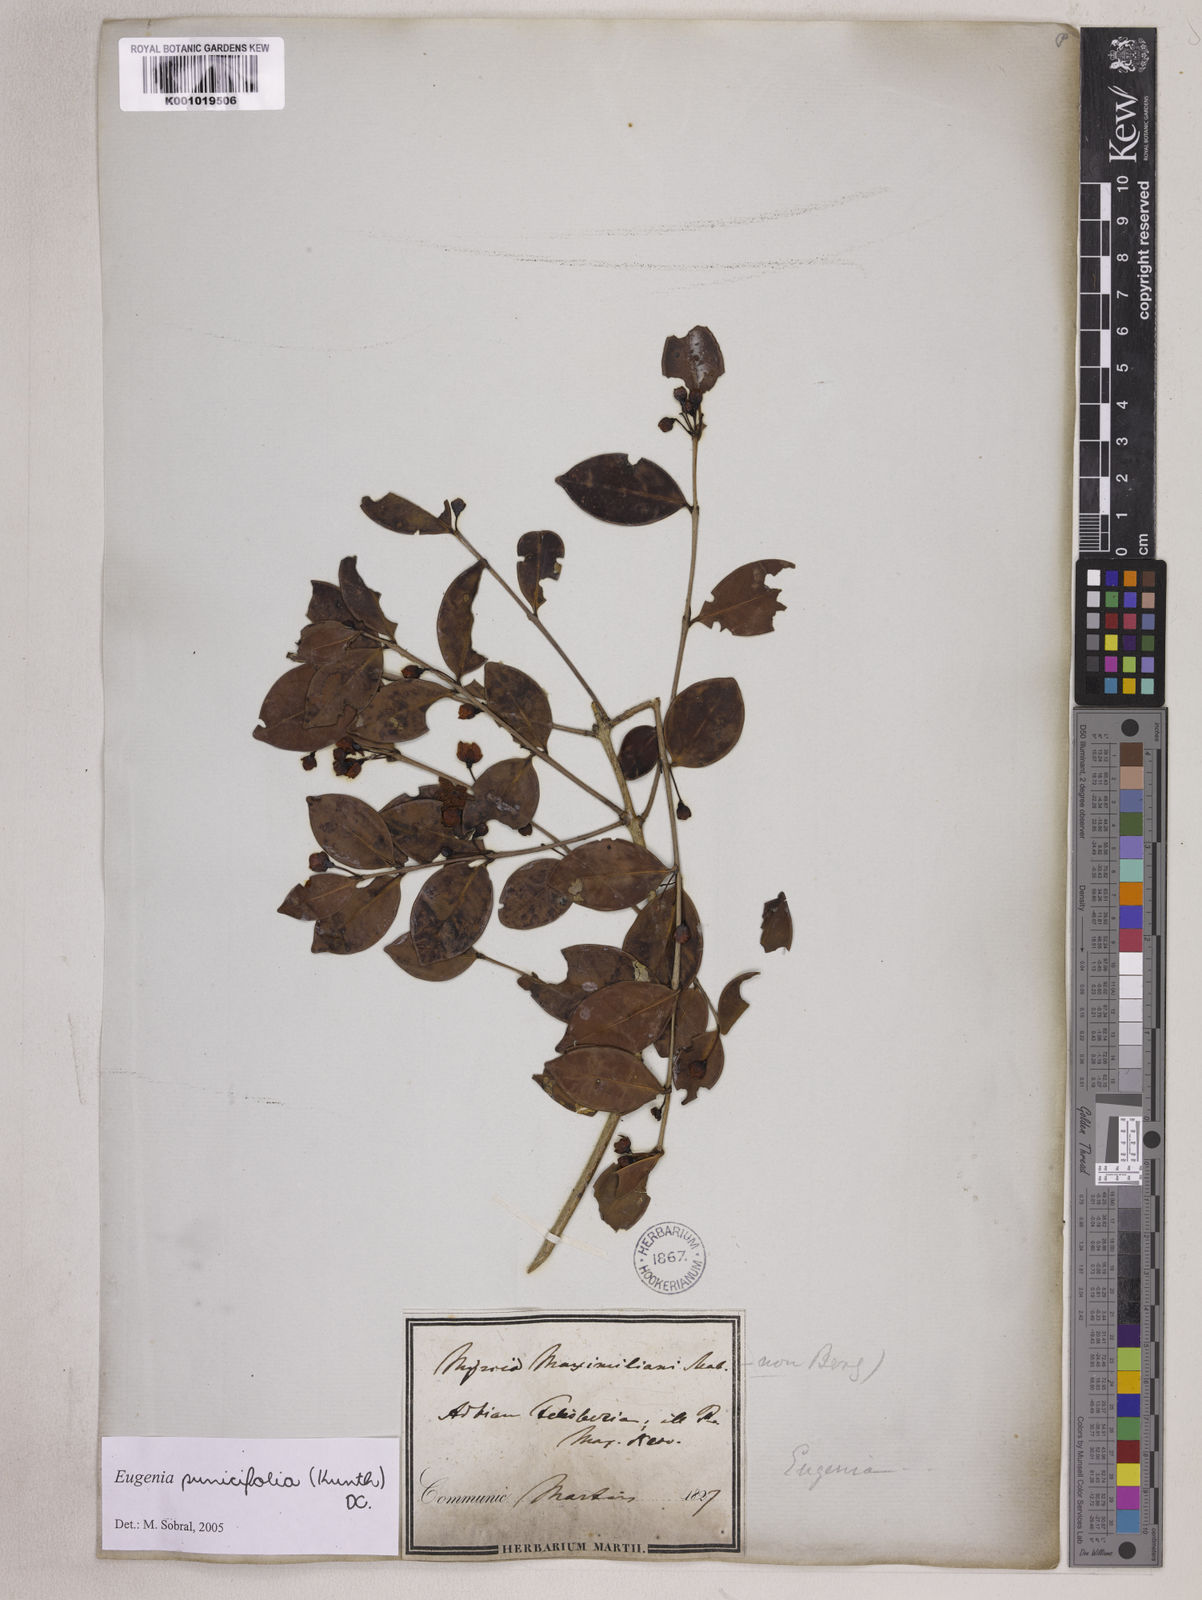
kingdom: Plantae
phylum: Tracheophyta
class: Magnoliopsida
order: Myrtales
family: Myrtaceae
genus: Eugenia
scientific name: Eugenia punicifolia
